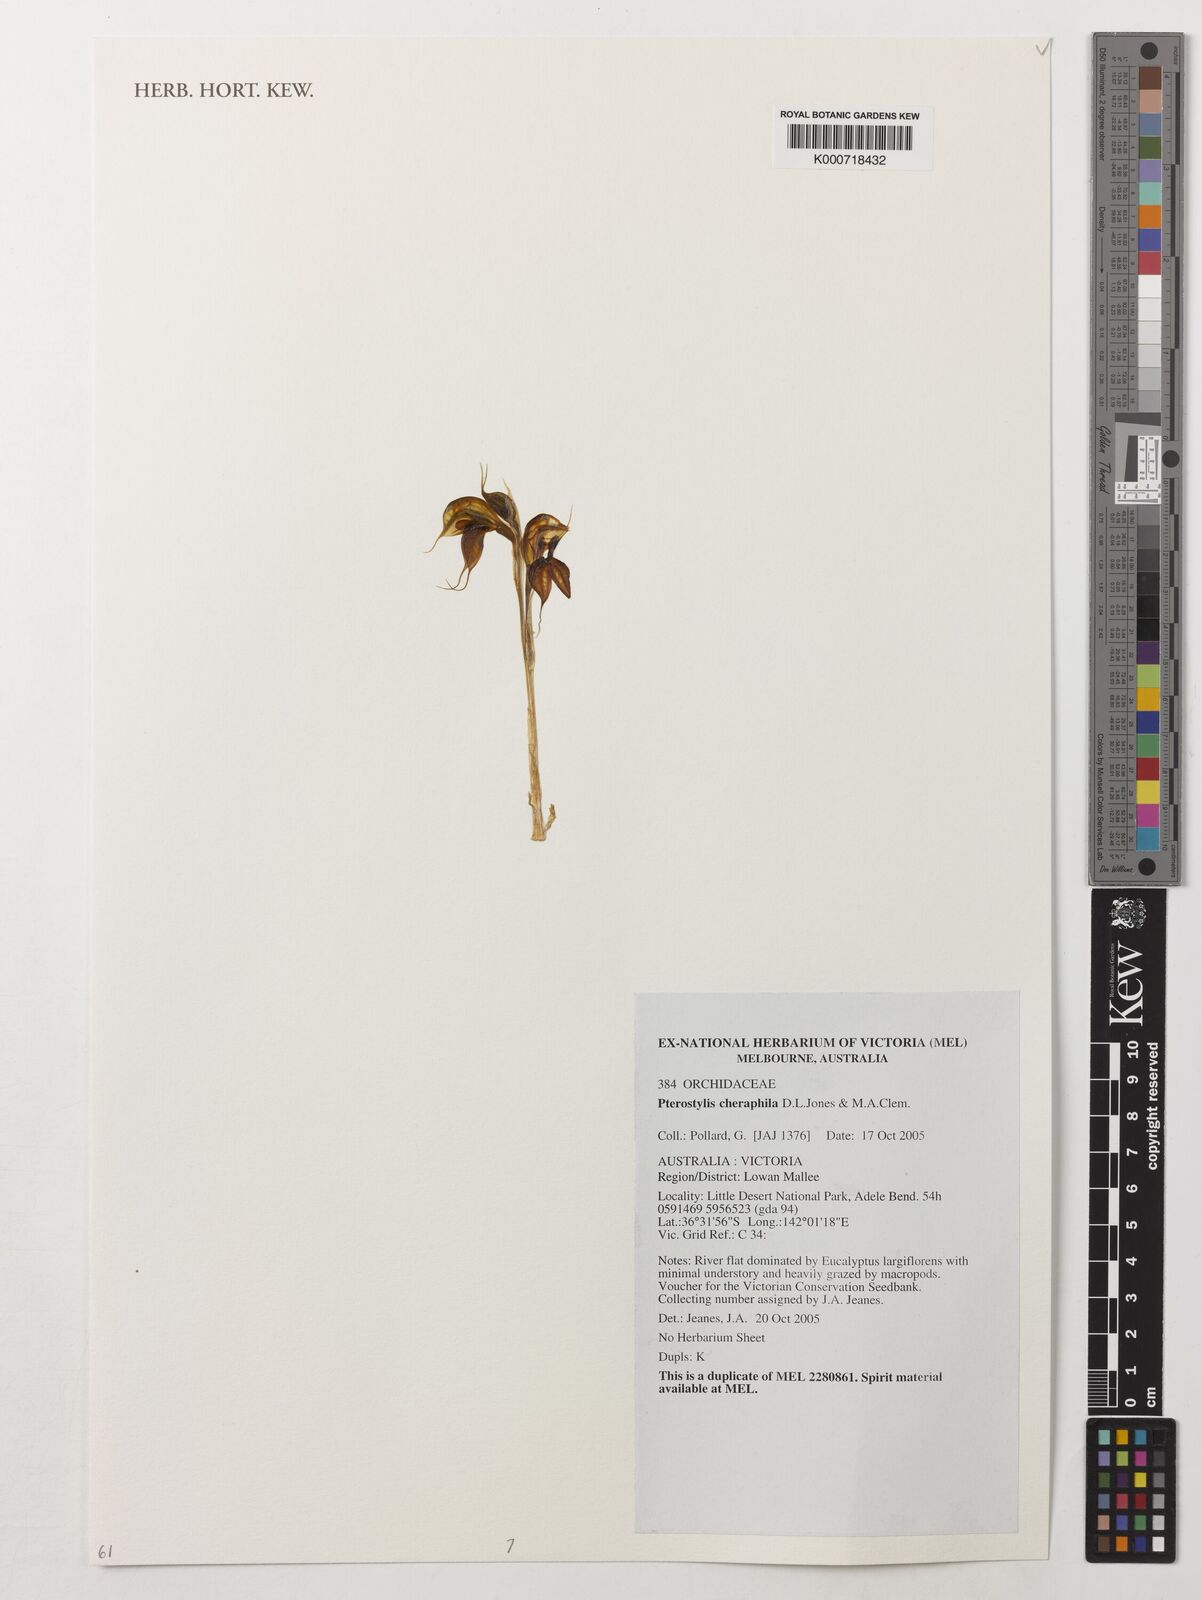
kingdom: Plantae
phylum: Tracheophyta
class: Liliopsida
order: Asparagales
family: Orchidaceae
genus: Pterostylis
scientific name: Pterostylis cheraphila
